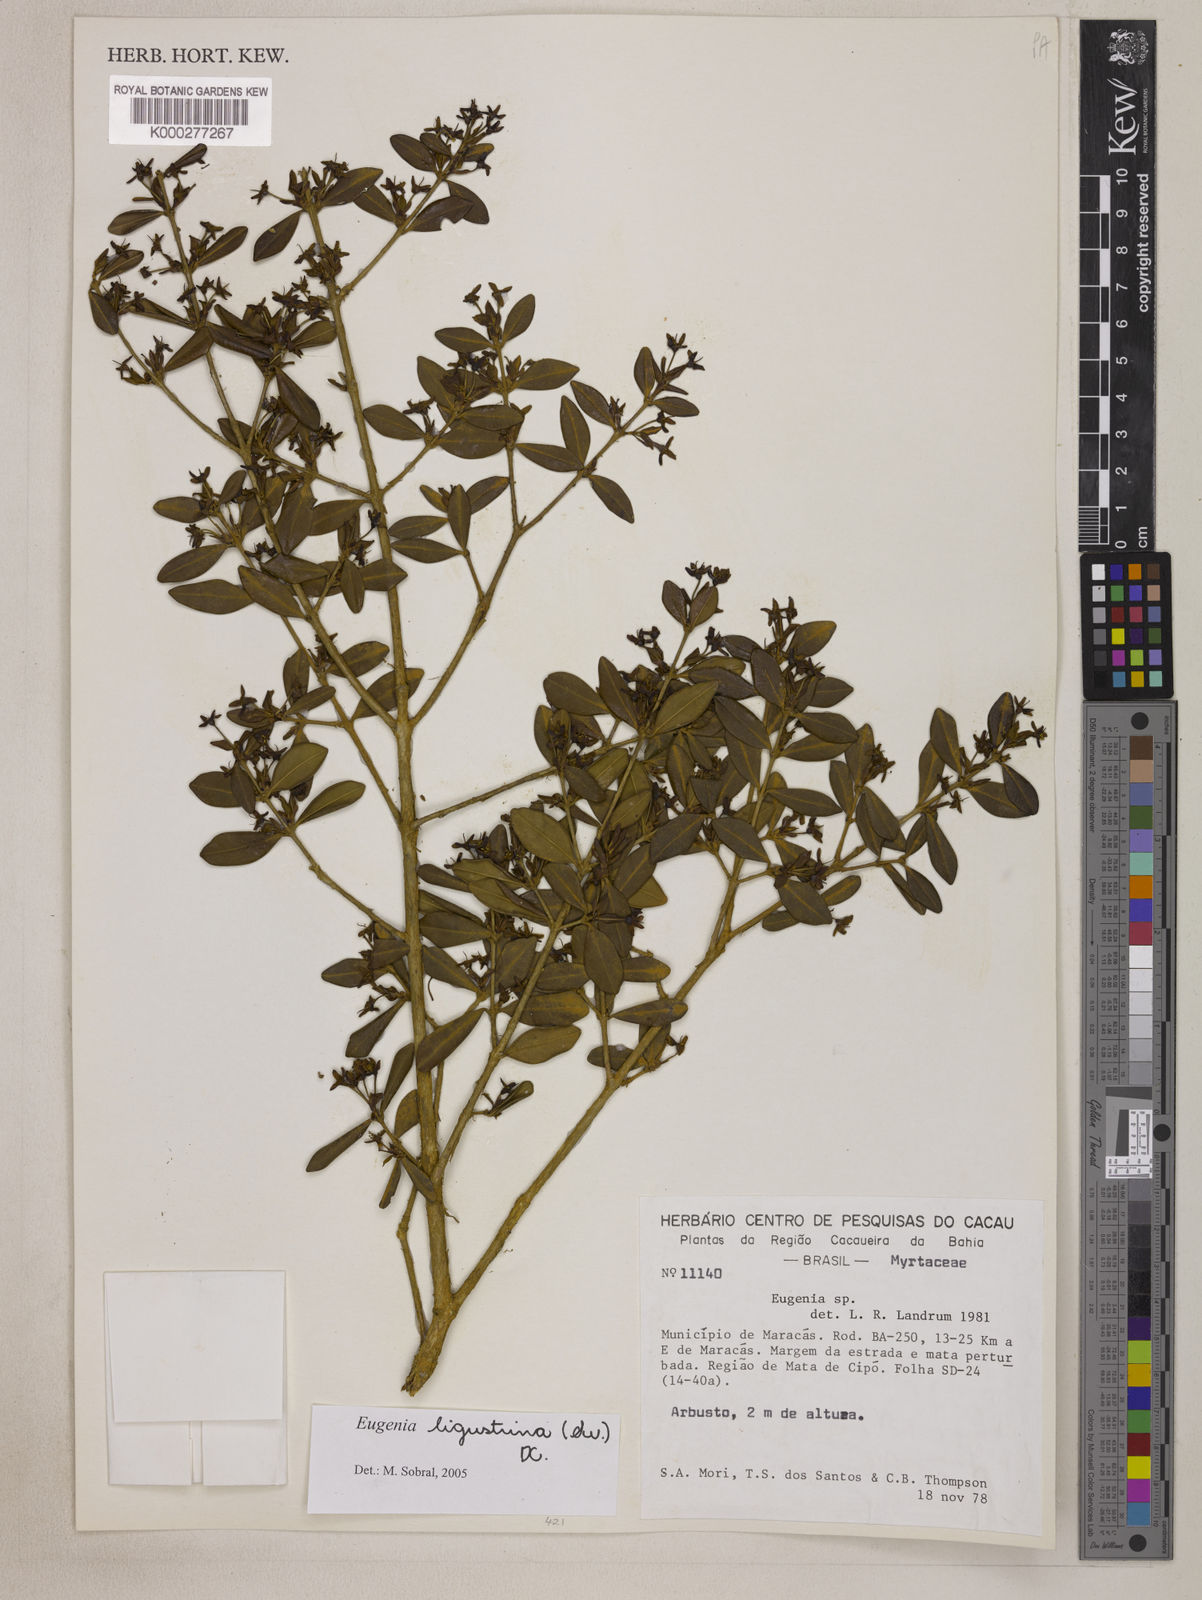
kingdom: Plantae
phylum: Tracheophyta
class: Magnoliopsida
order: Myrtales
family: Myrtaceae
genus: Eugenia
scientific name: Eugenia ligustrina
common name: Privet stopper
